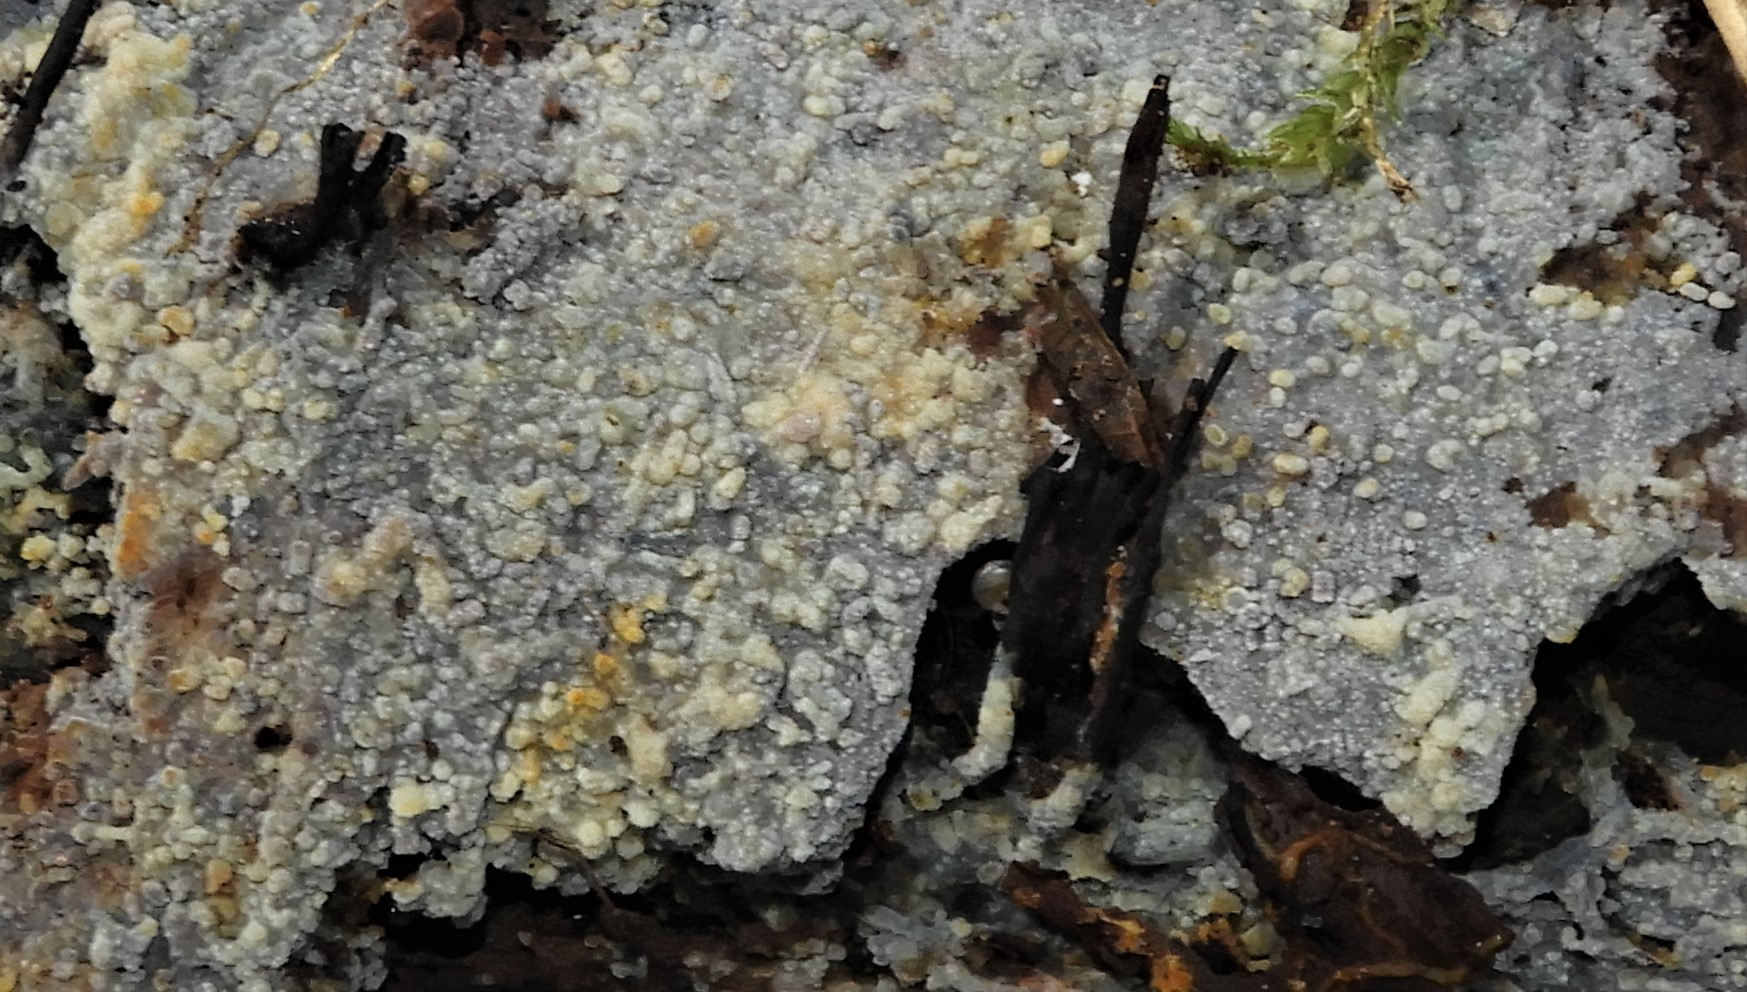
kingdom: Fungi
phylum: Basidiomycota
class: Agaricomycetes
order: Corticiales
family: Corticiaceae
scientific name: Corticiaceae
